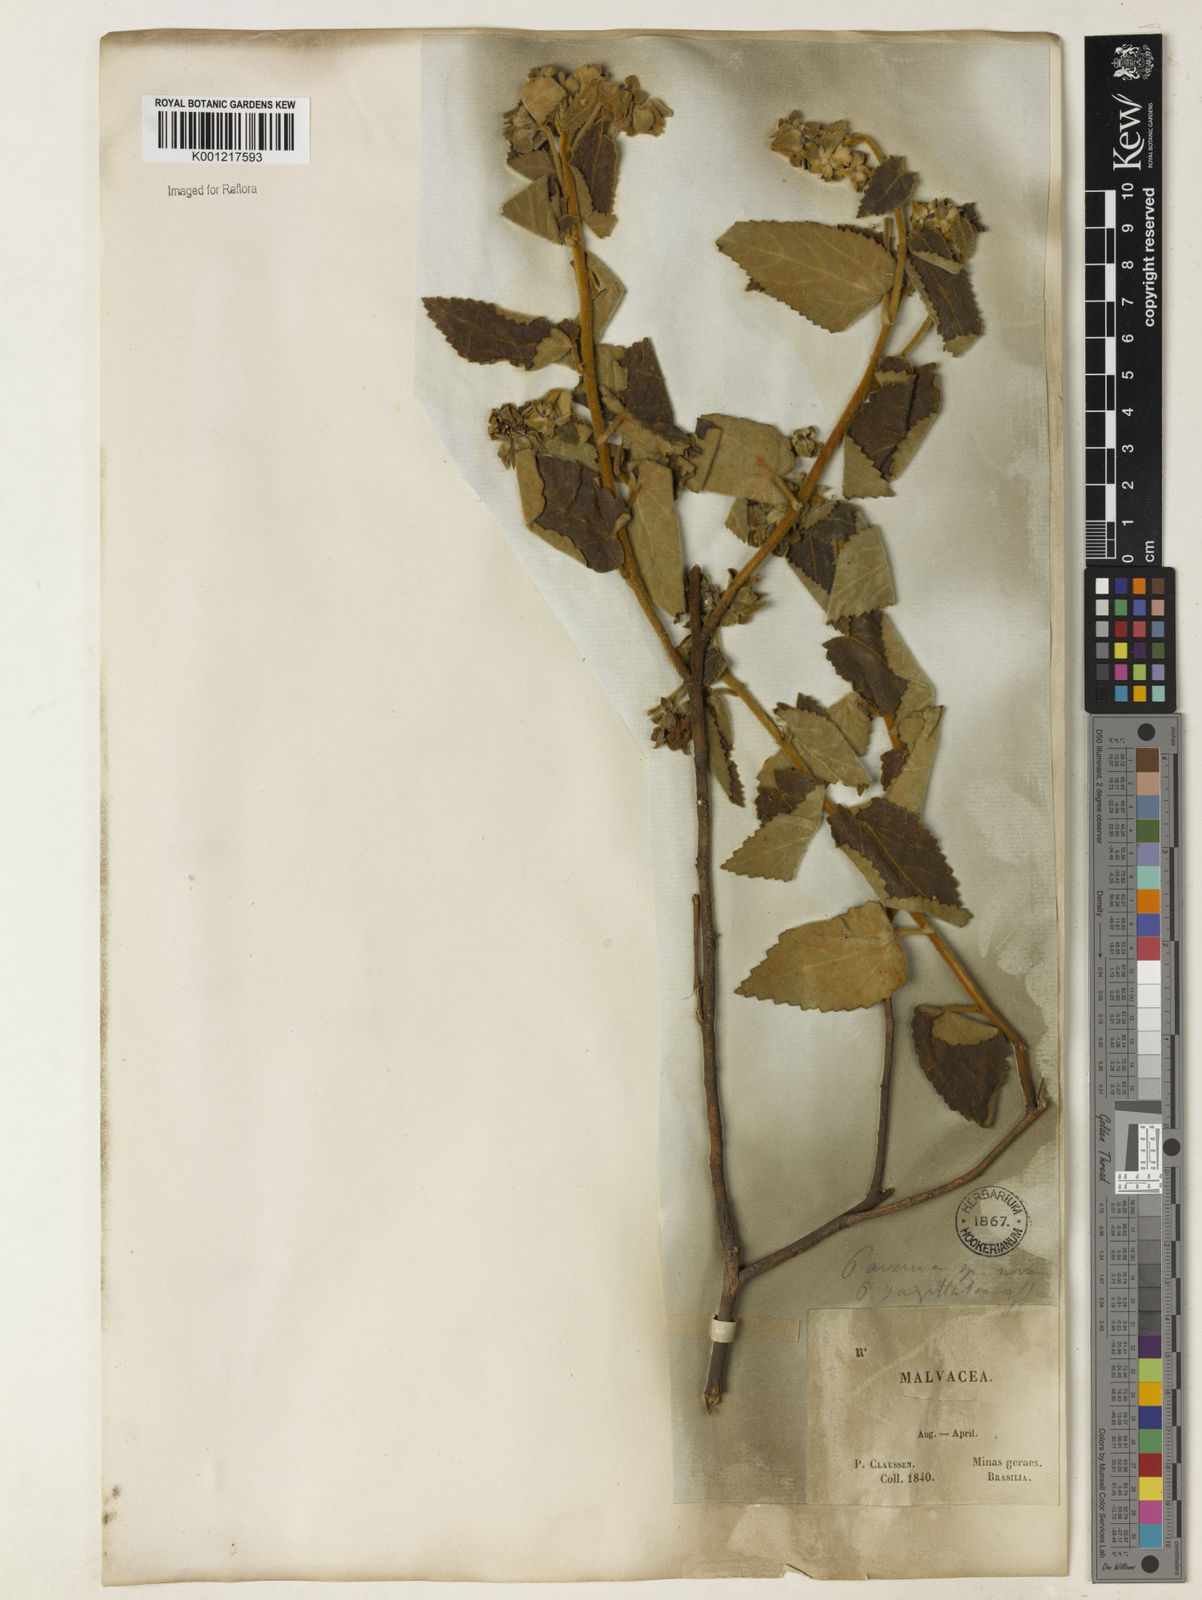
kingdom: Plantae
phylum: Tracheophyta
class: Magnoliopsida
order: Malvales
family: Malvaceae
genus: Pavonia
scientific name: Pavonia
